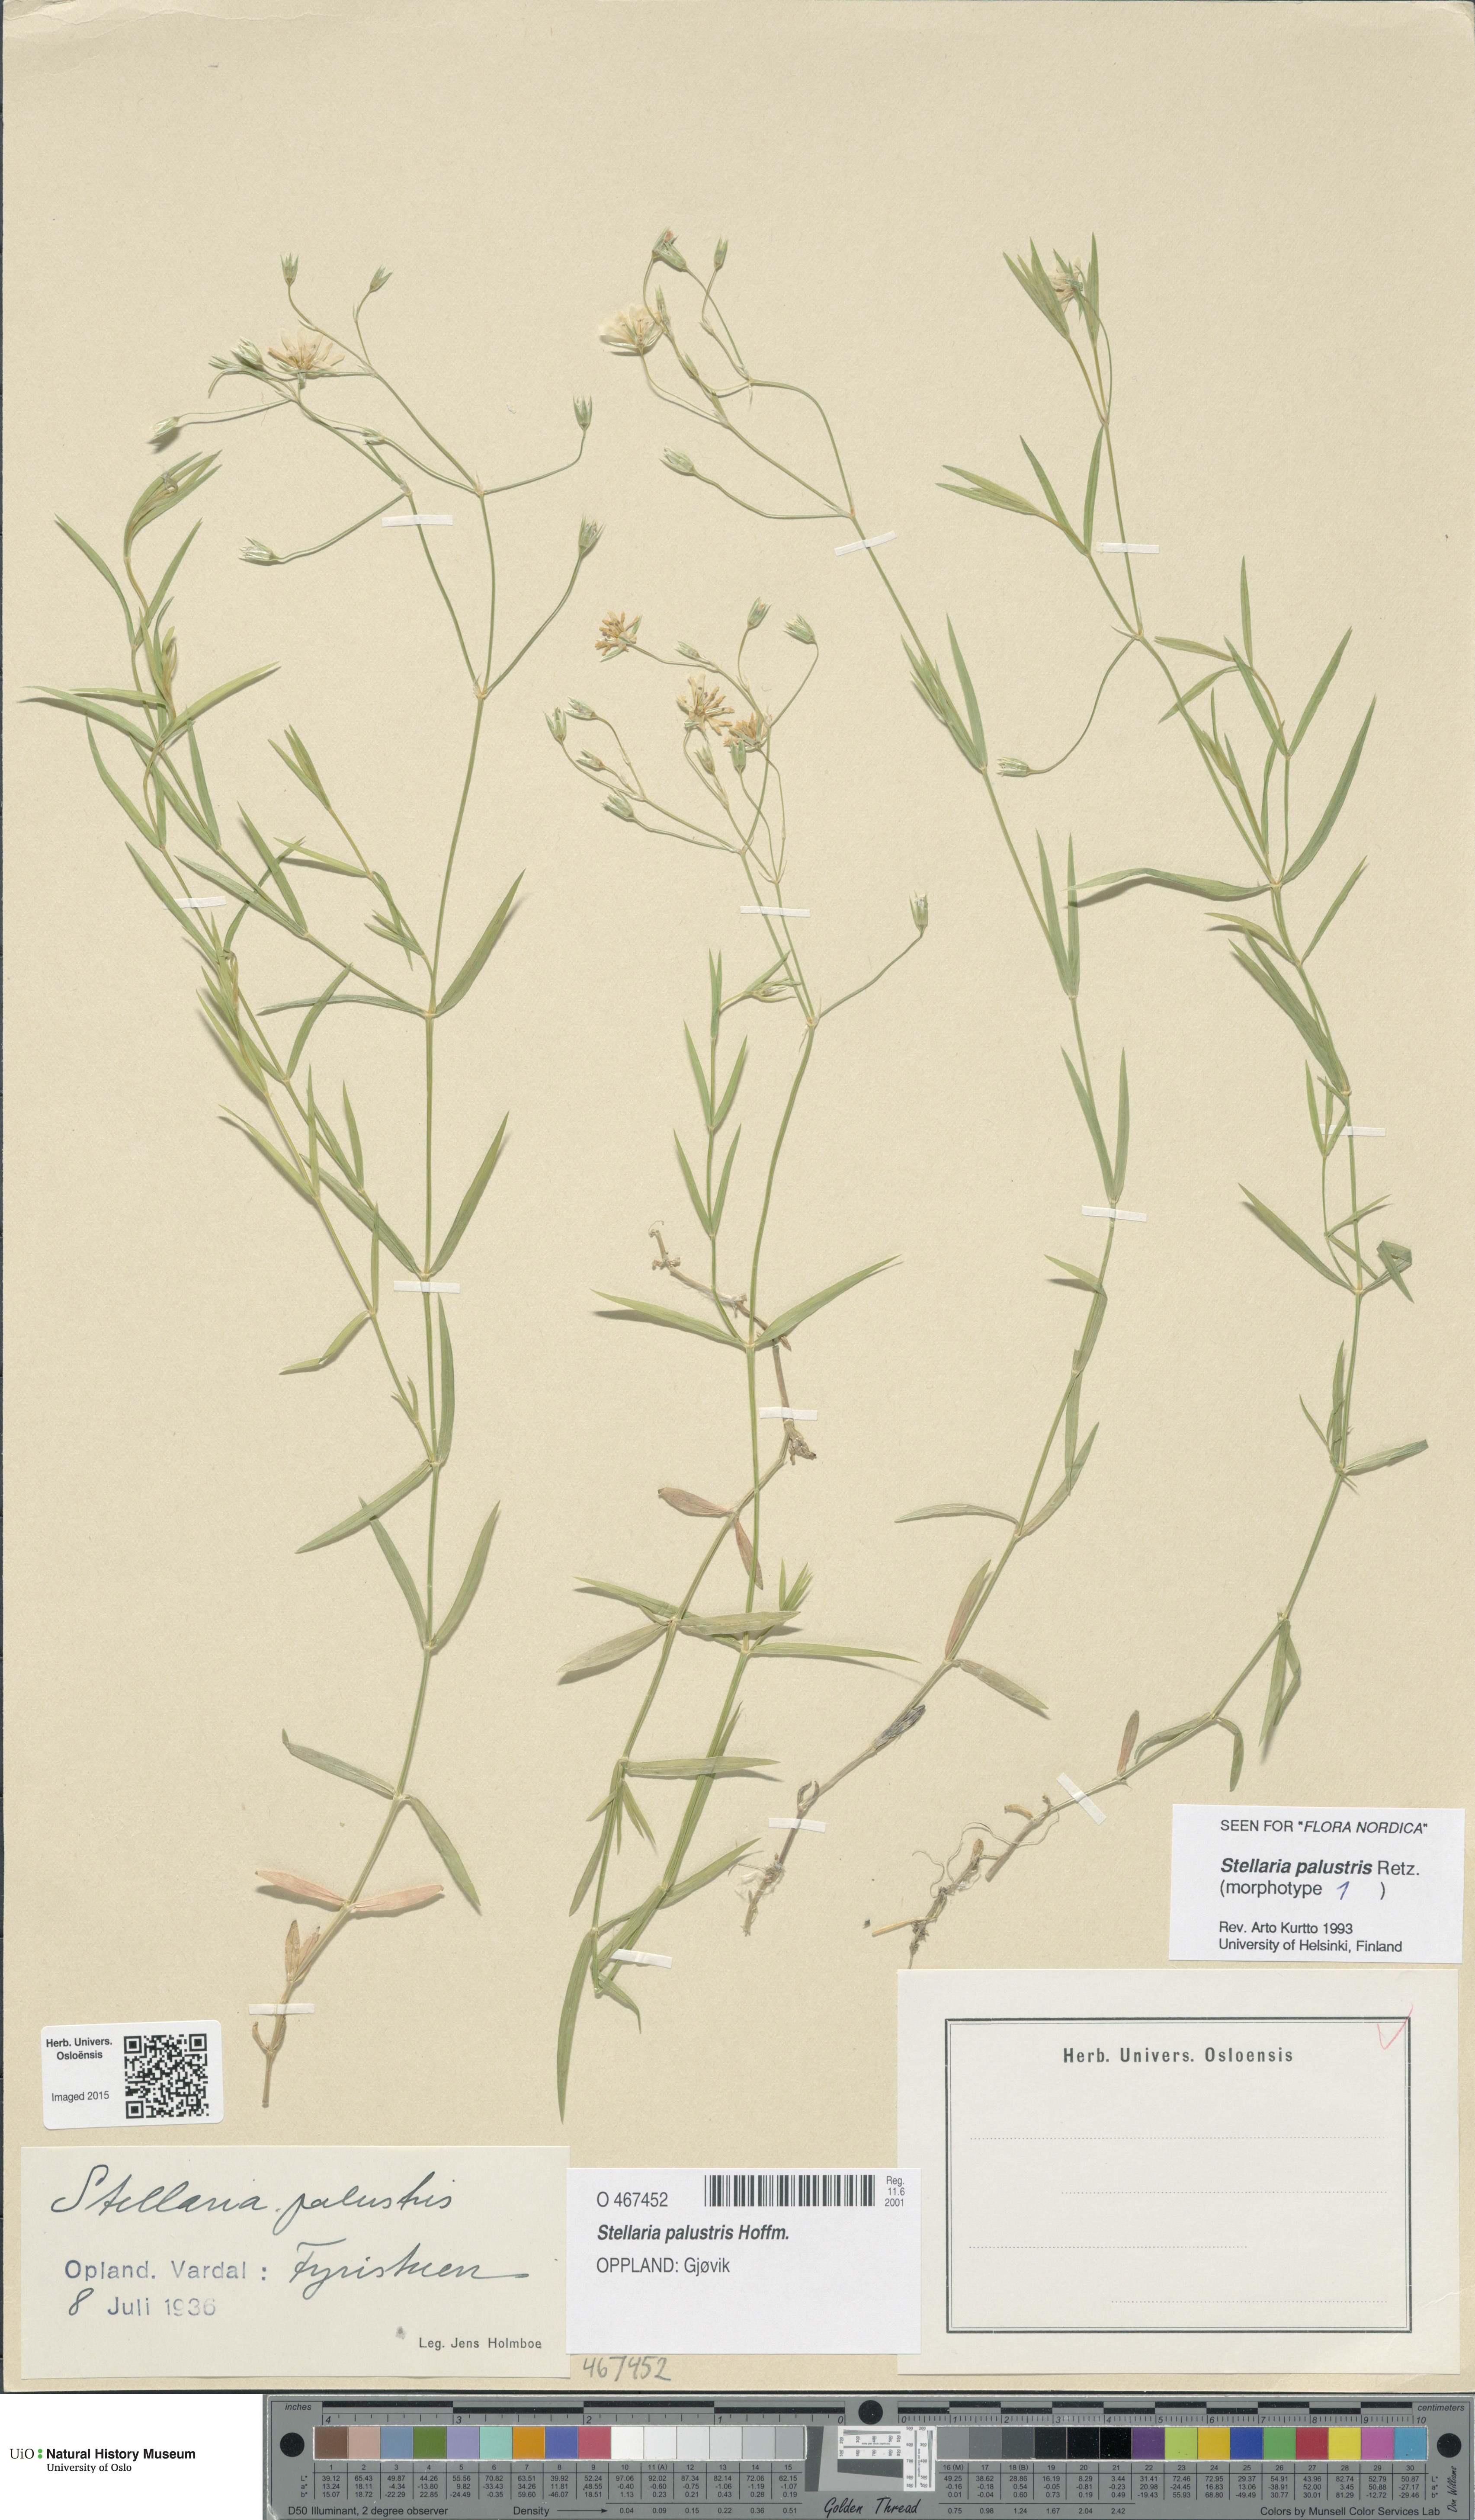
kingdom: Plantae
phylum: Tracheophyta
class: Magnoliopsida
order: Caryophyllales
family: Caryophyllaceae
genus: Stellaria
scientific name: Stellaria palustris
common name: Marsh stitchwort
